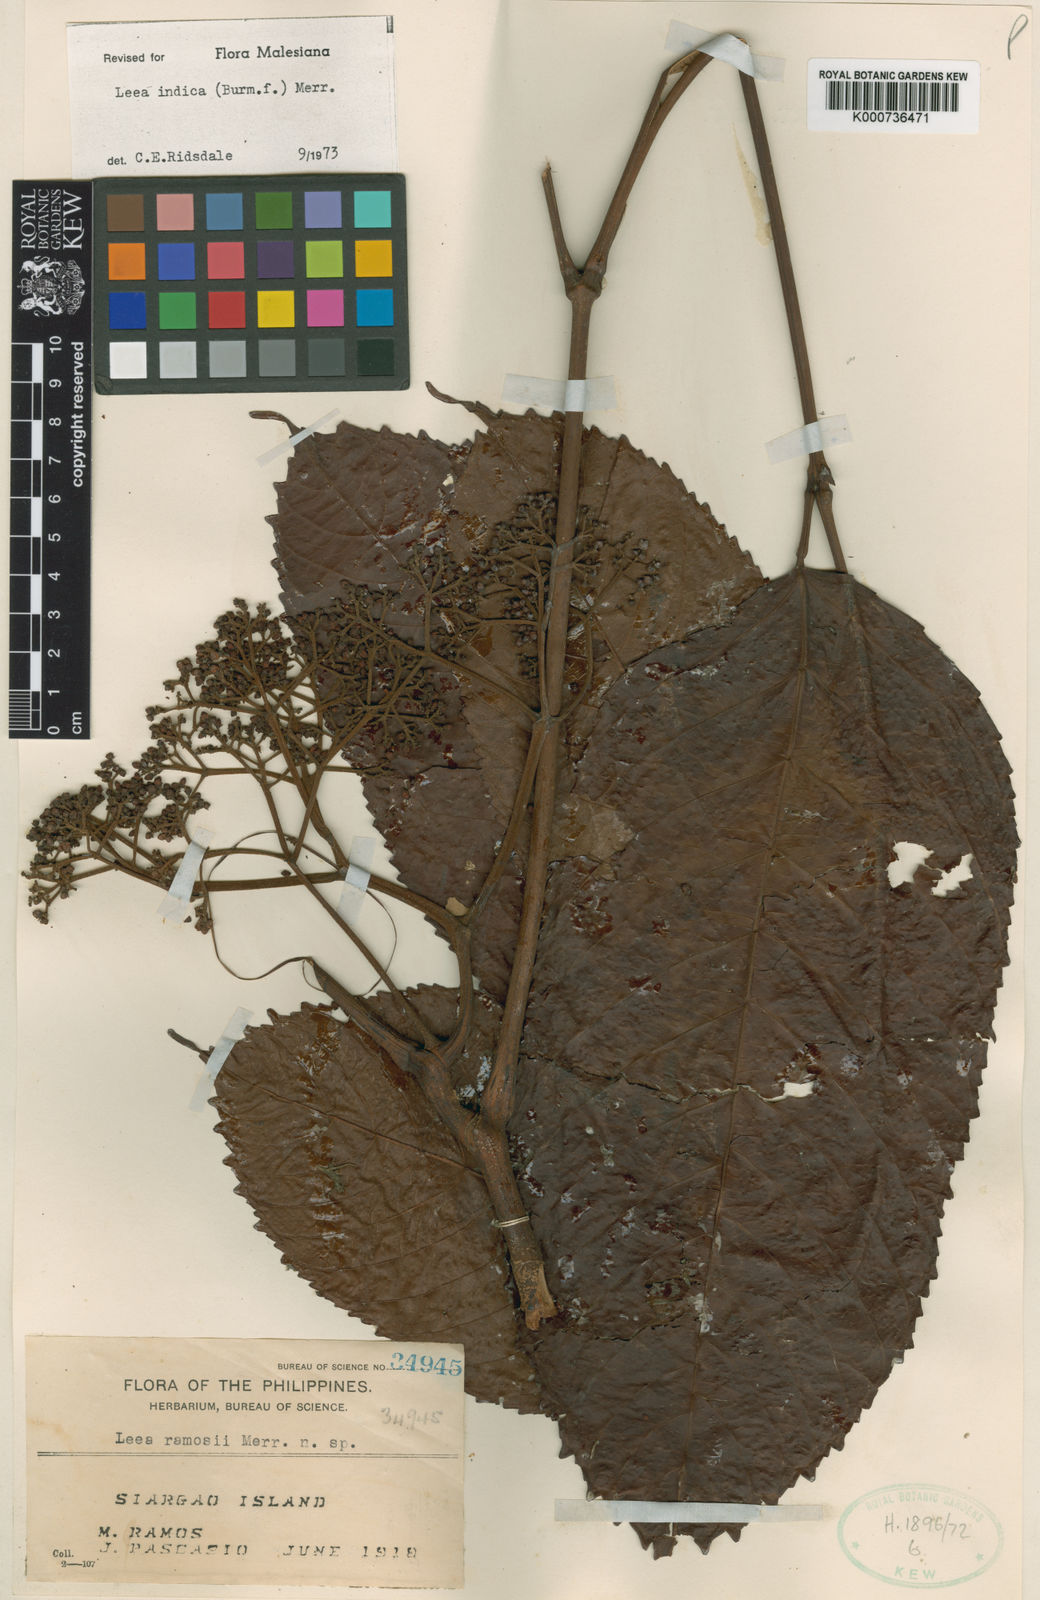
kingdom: Plantae
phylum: Tracheophyta
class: Magnoliopsida
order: Vitales
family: Vitaceae
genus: Leea
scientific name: Leea indica
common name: Bandicoot-berry
